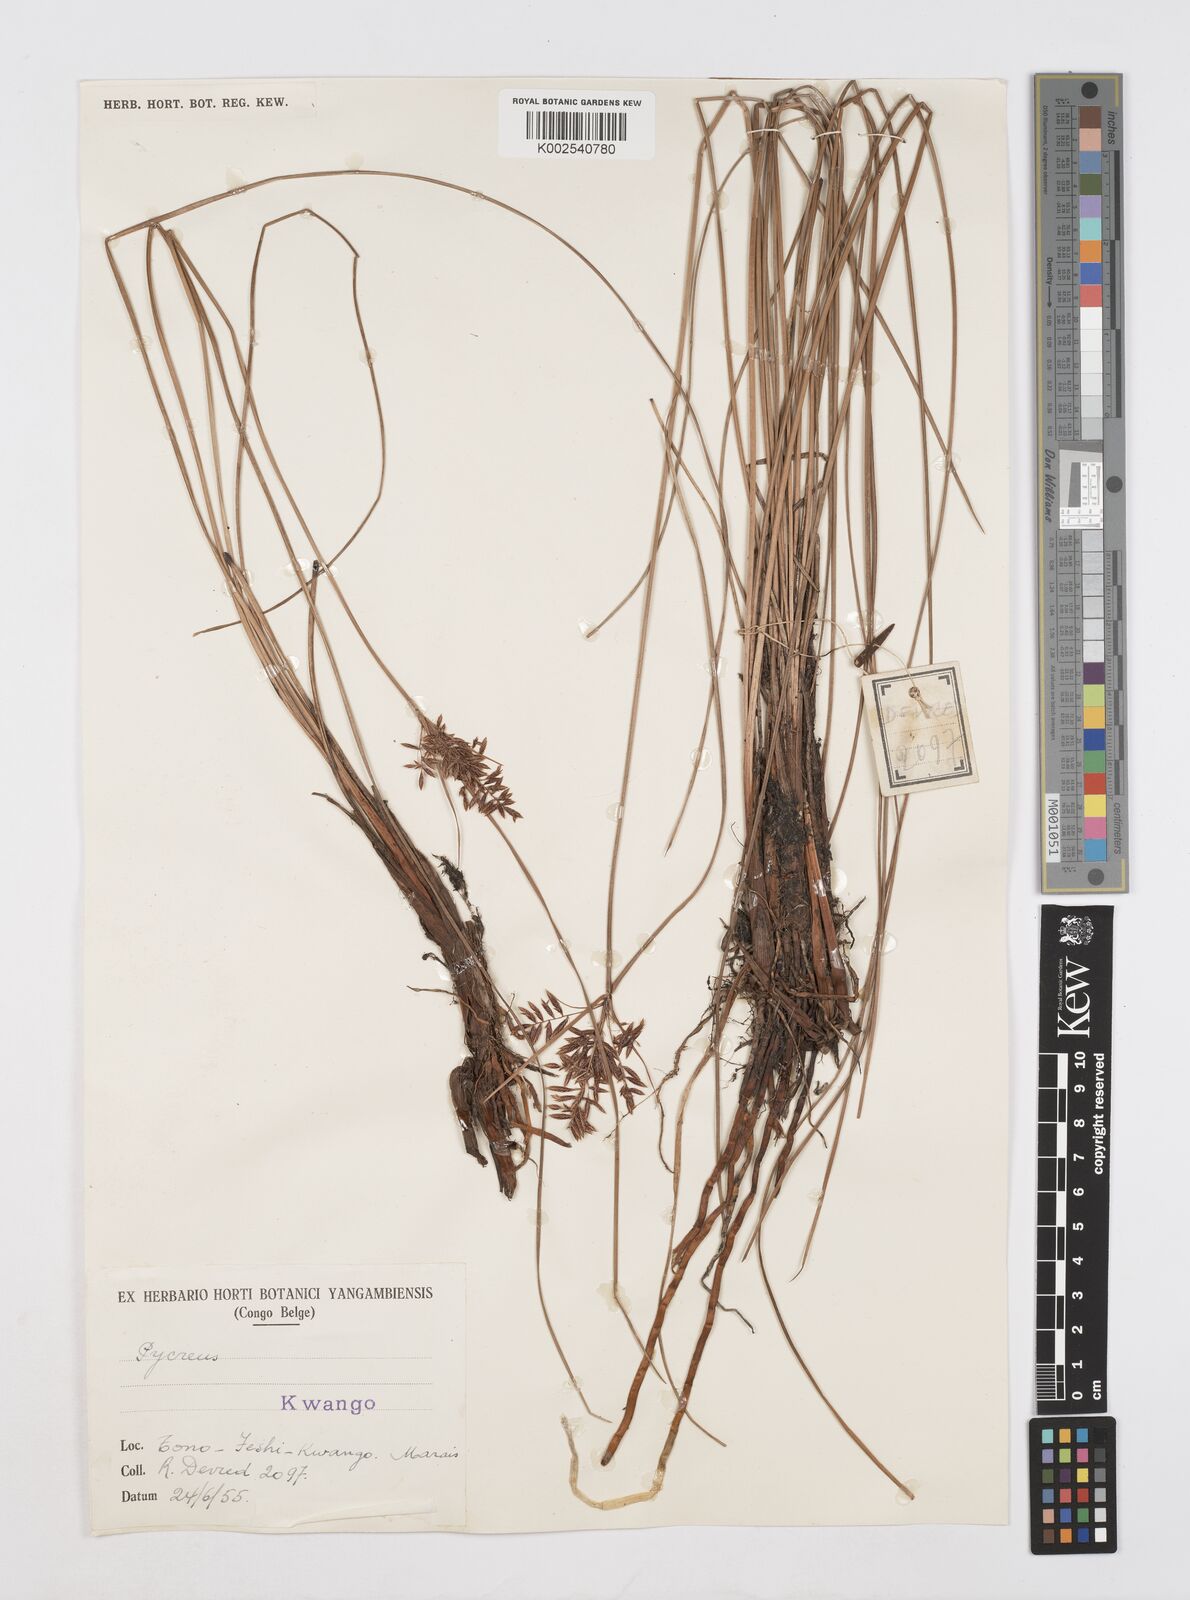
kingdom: Plantae
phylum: Tracheophyta
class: Liliopsida
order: Poales
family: Cyperaceae
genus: Cyperus
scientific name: Cyperus aethiops
